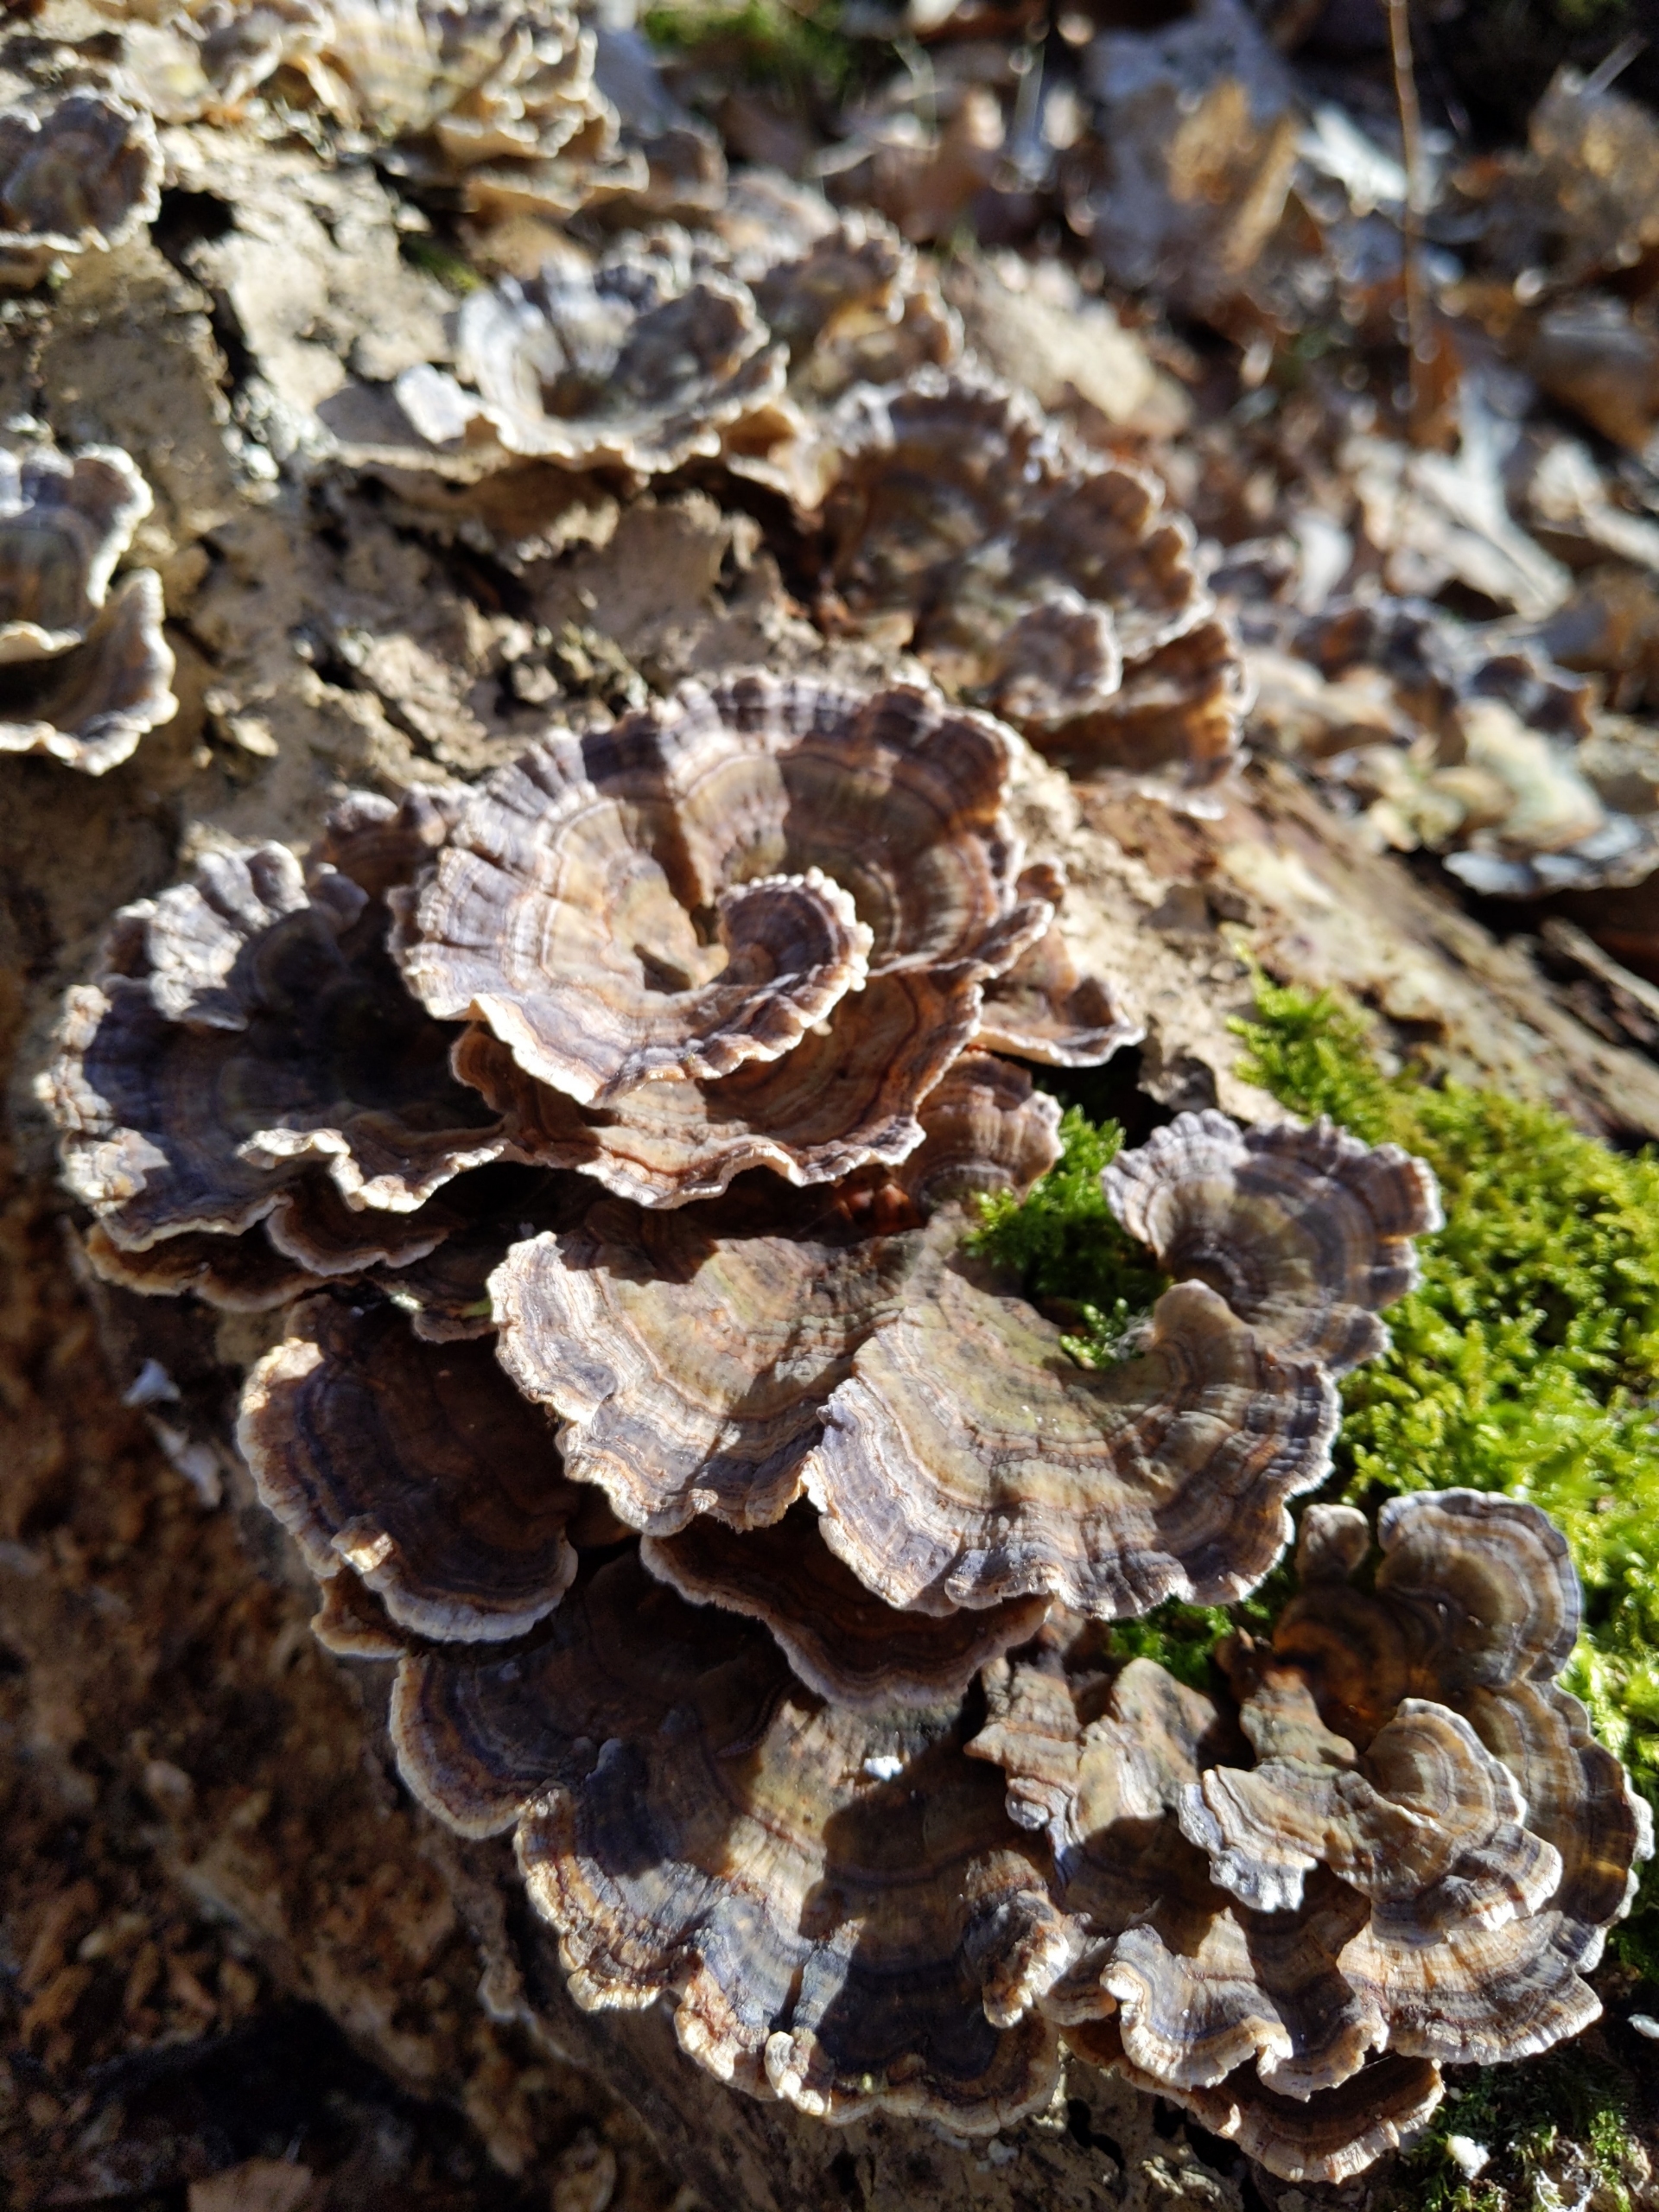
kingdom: Fungi
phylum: Basidiomycota
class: Agaricomycetes
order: Polyporales
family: Polyporaceae
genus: Trametes
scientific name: Trametes versicolor
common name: Broget læderporesvamp
